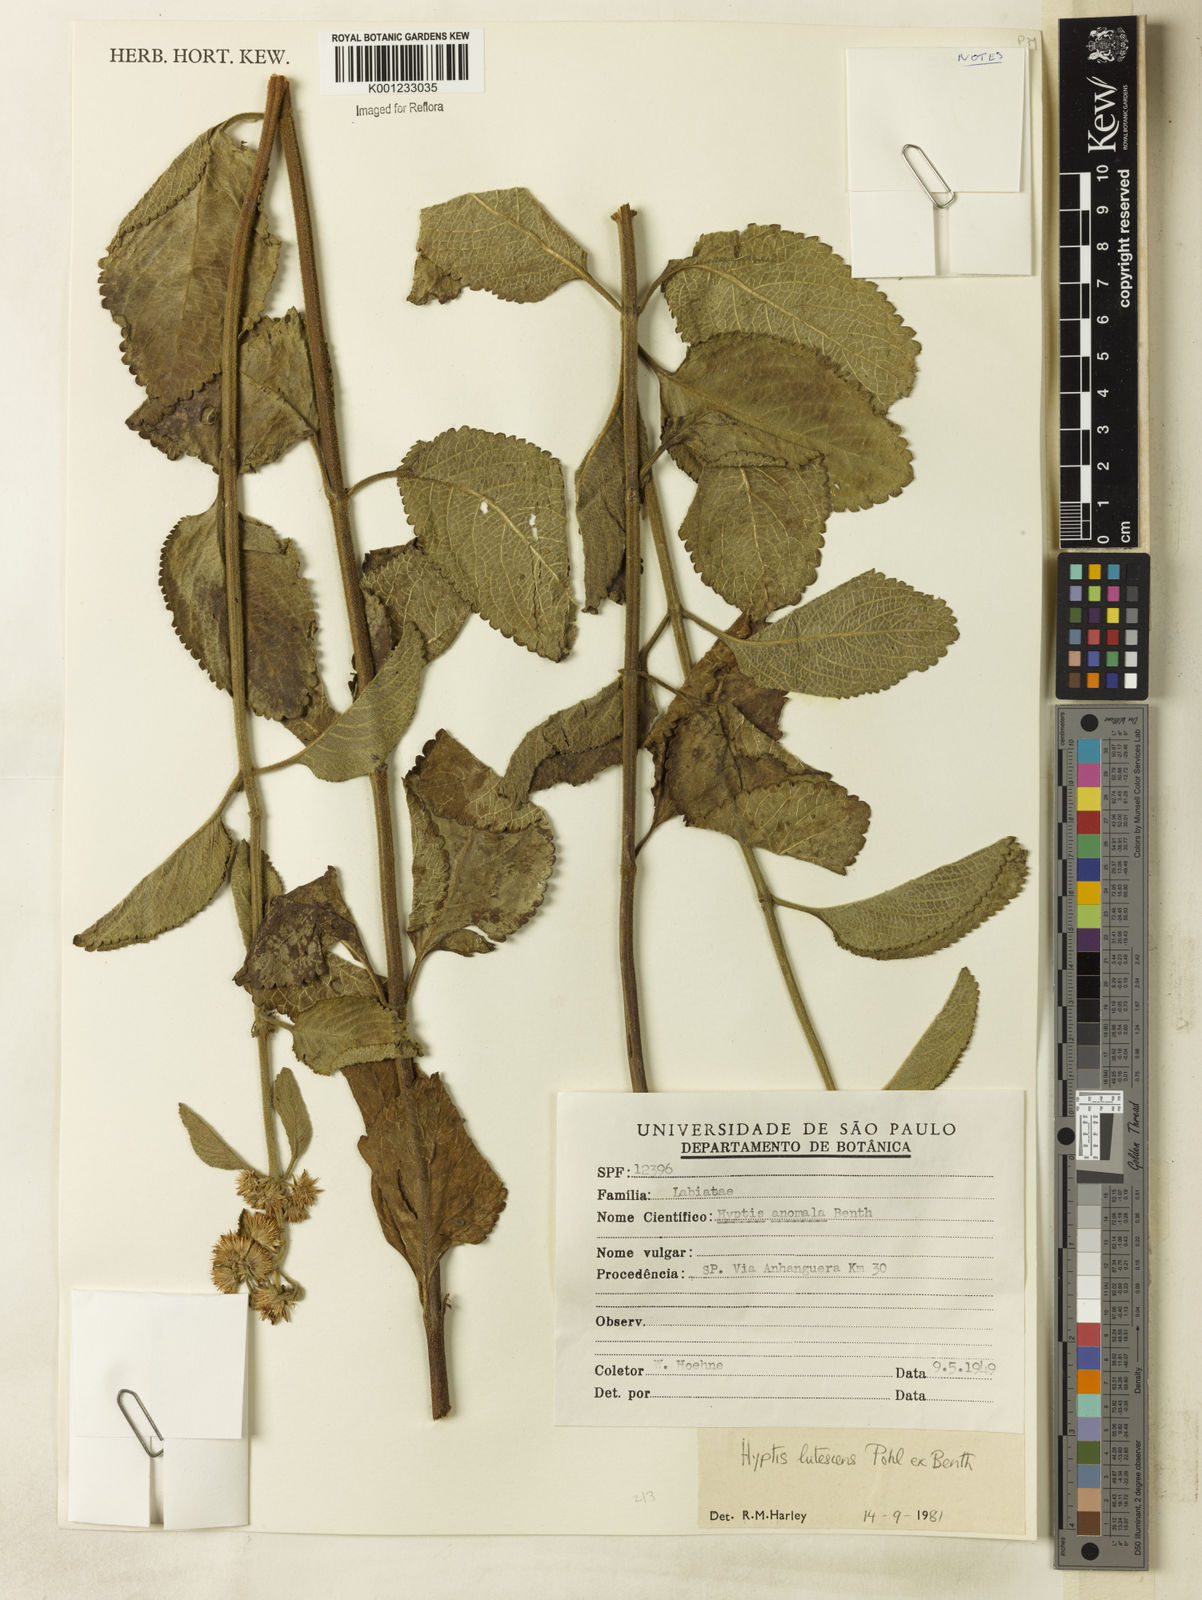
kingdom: Plantae
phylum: Tracheophyta
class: Magnoliopsida
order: Lamiales
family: Lamiaceae
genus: Hyptis
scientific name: Hyptis lutescens
